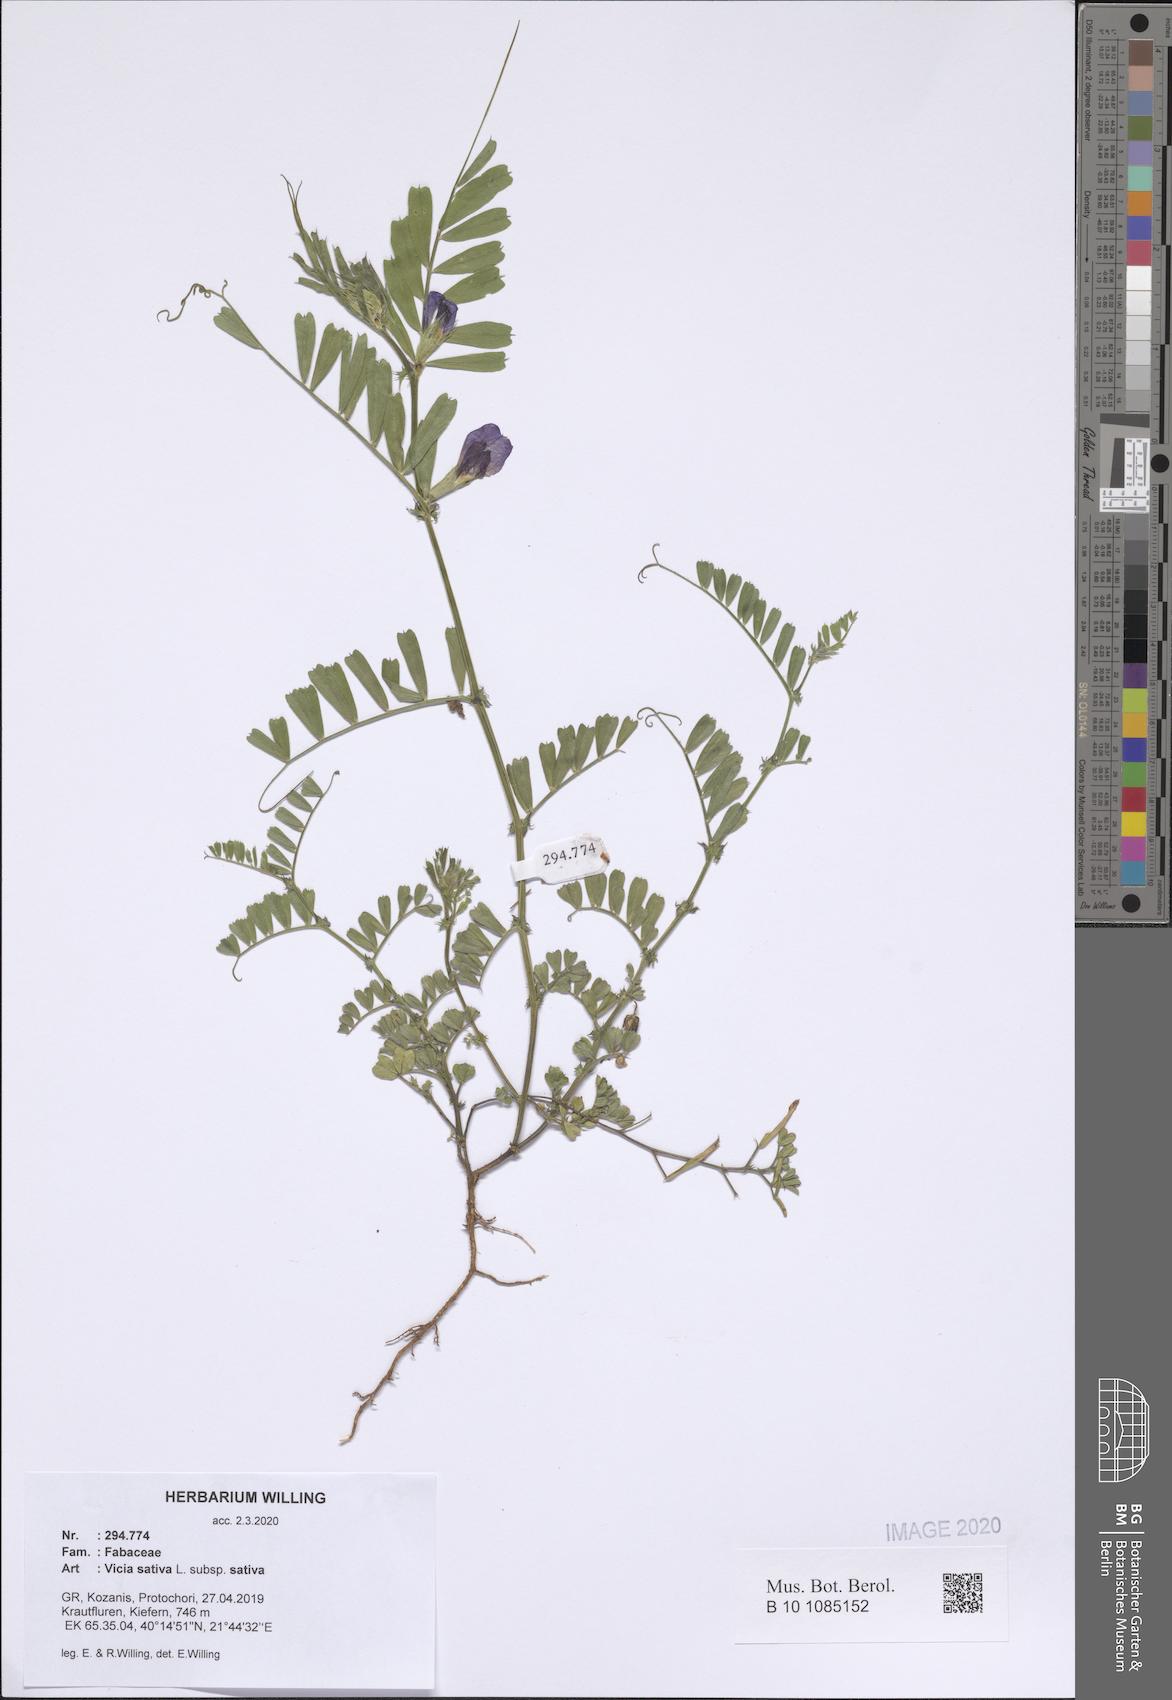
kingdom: Plantae
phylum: Tracheophyta
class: Magnoliopsida
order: Fabales
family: Fabaceae
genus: Vicia
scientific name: Vicia sativa
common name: Garden vetch
